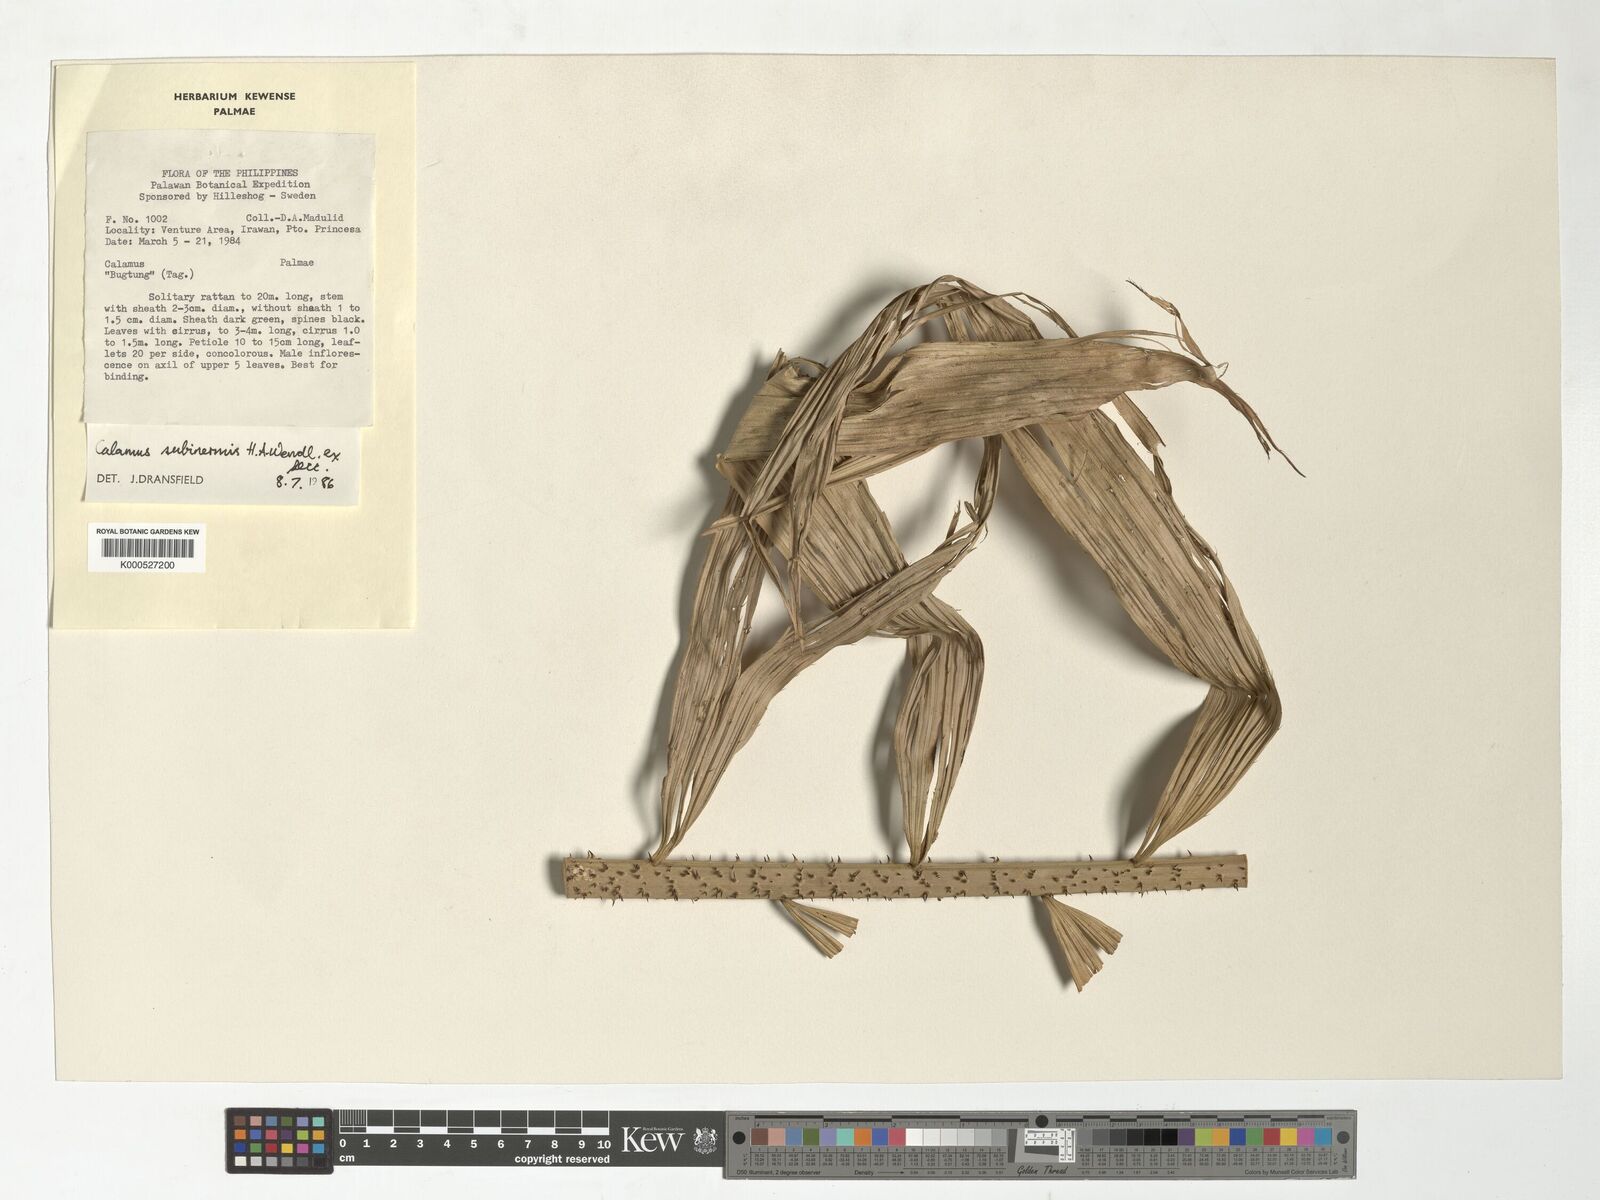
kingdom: Plantae
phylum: Tracheophyta
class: Liliopsida
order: Arecales
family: Arecaceae
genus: Calamus
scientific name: Calamus moseleyanus
